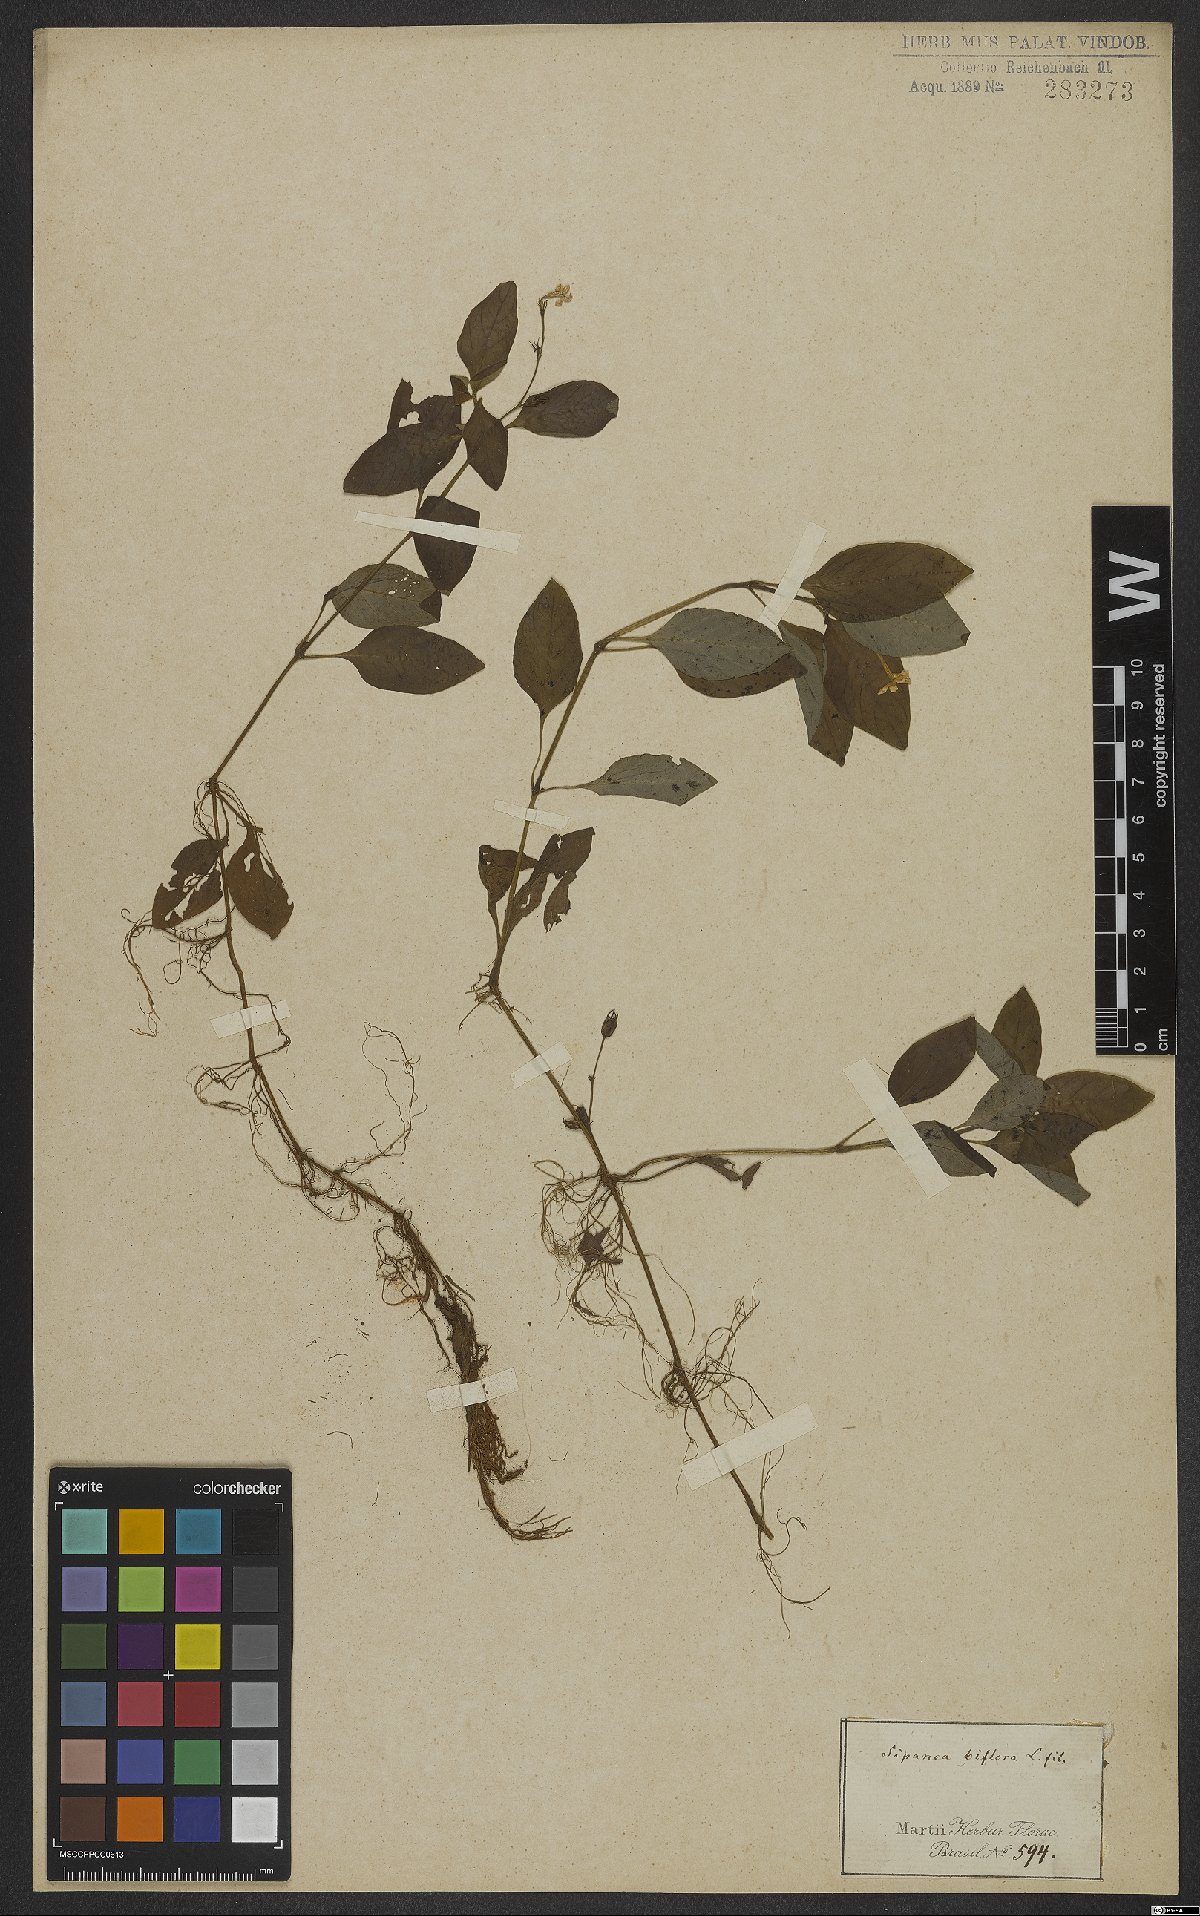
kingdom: Plantae
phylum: Tracheophyta
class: Magnoliopsida
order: Gentianales
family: Rubiaceae
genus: Sipanea
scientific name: Sipanea biflora
